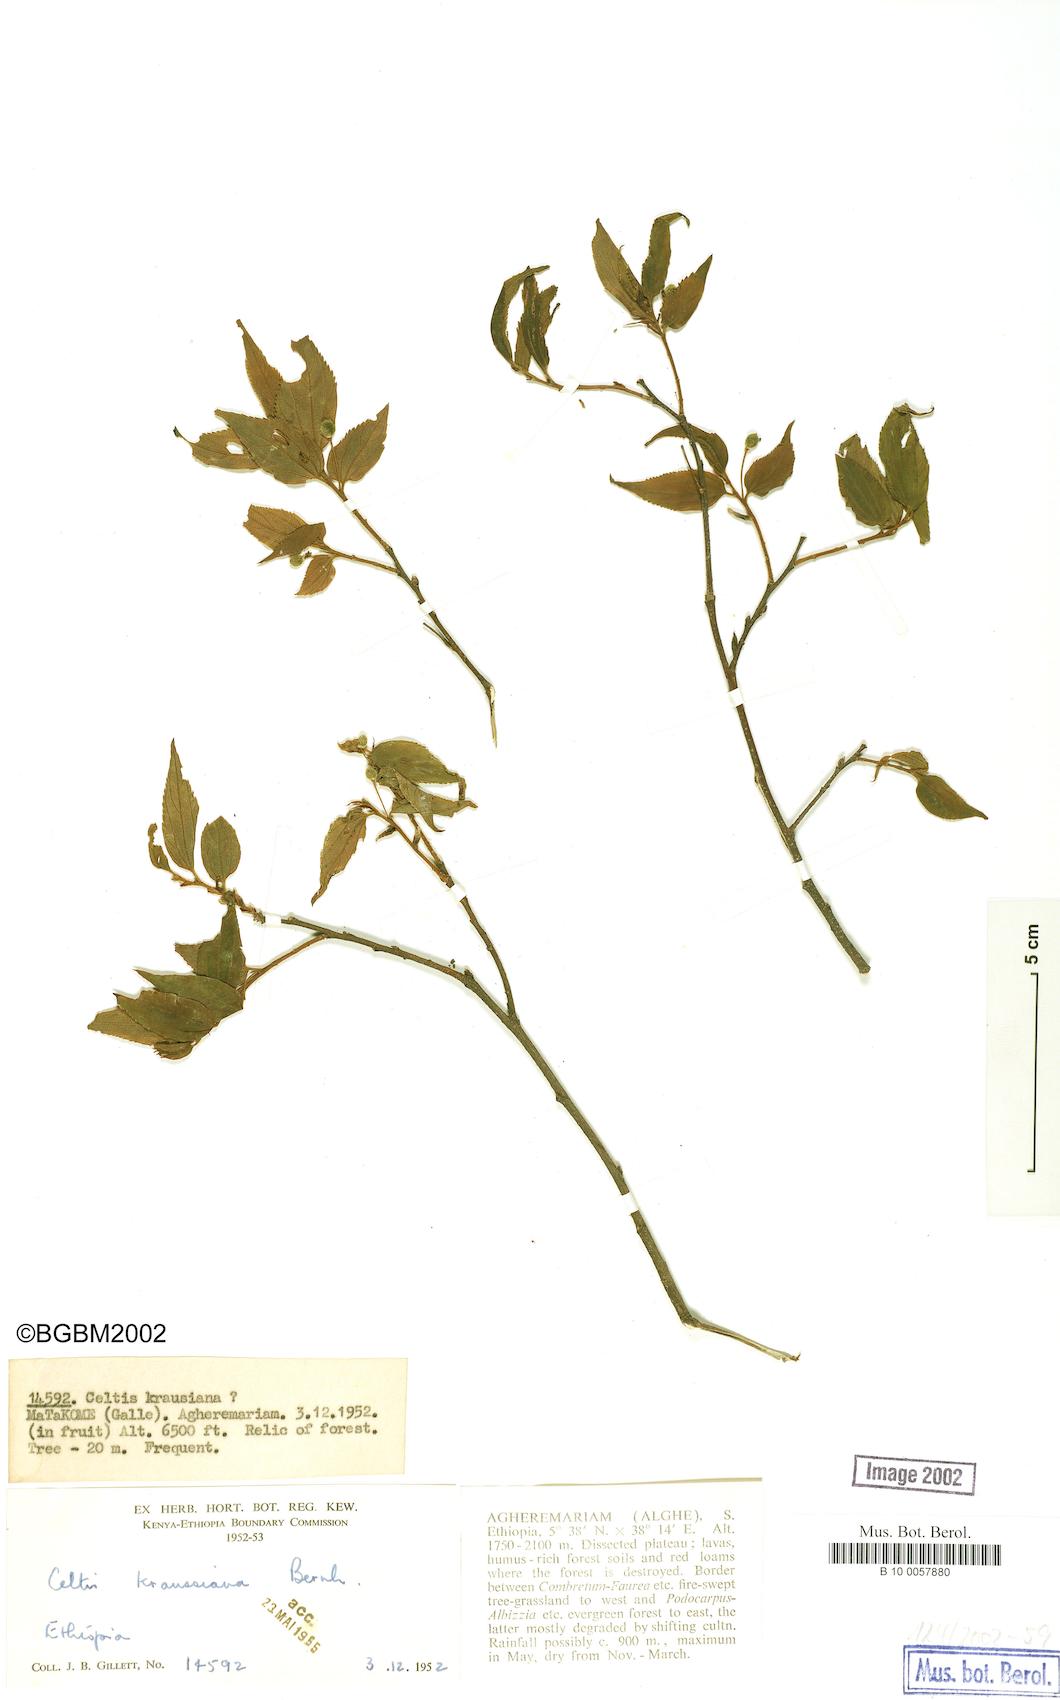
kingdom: Plantae
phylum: Tracheophyta
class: Magnoliopsida
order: Rosales
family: Cannabaceae
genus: Celtis
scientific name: Celtis africana
